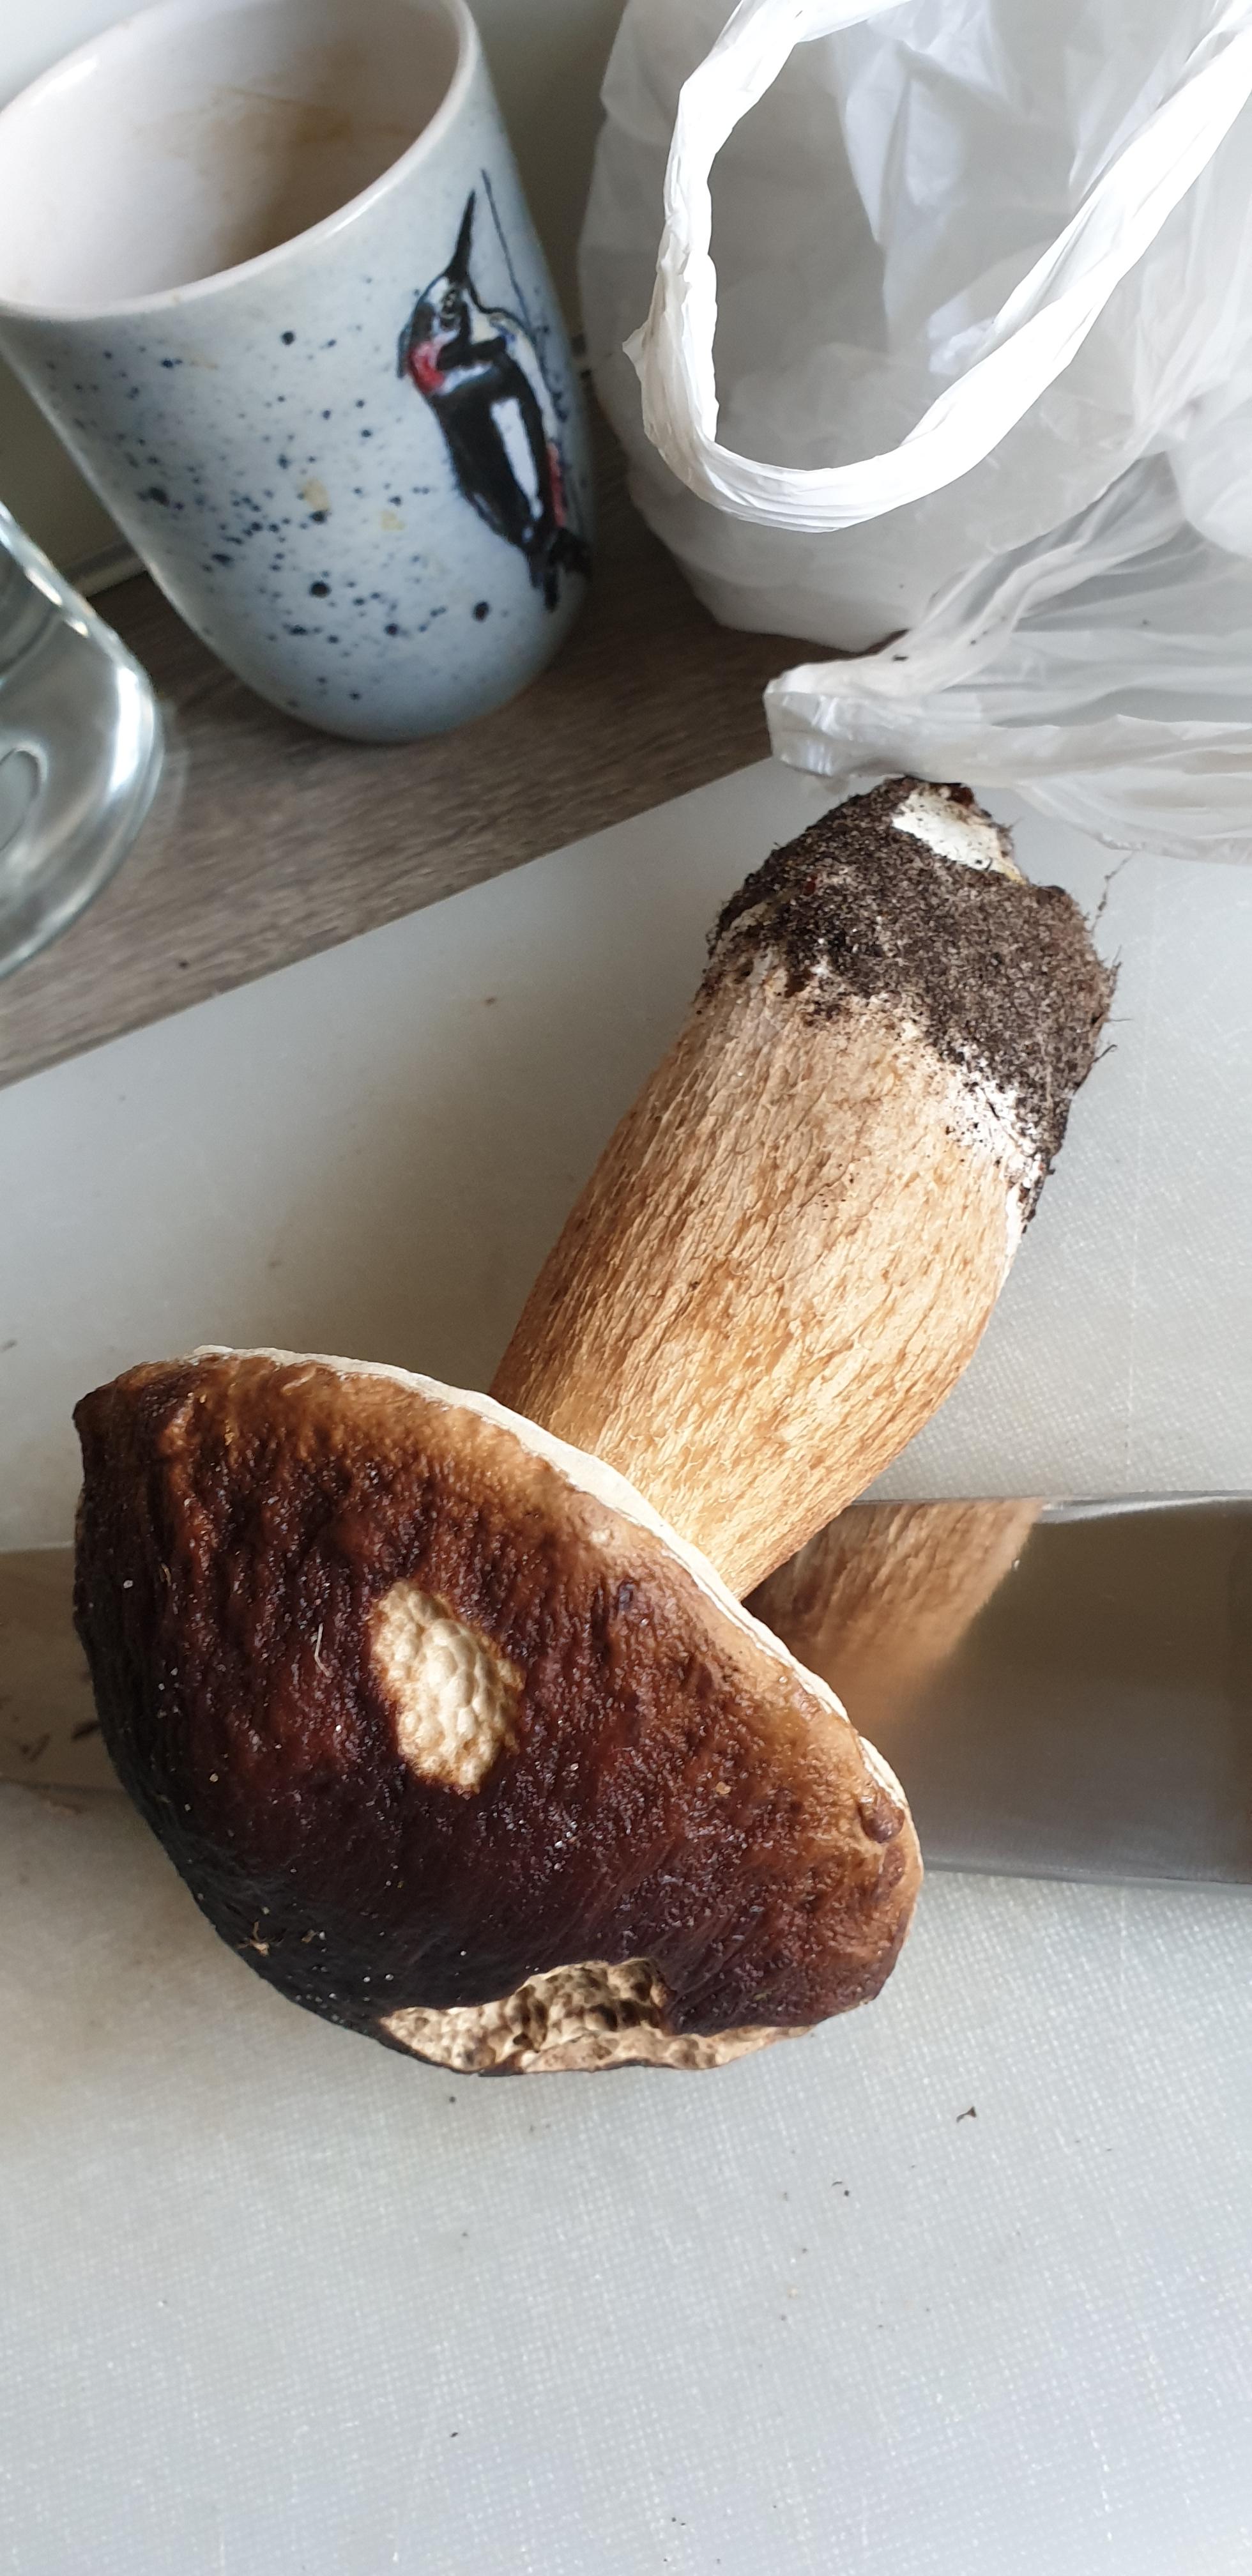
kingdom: Fungi
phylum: Basidiomycota
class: Agaricomycetes
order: Boletales
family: Boletaceae
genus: Boletus
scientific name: Boletus edulis
